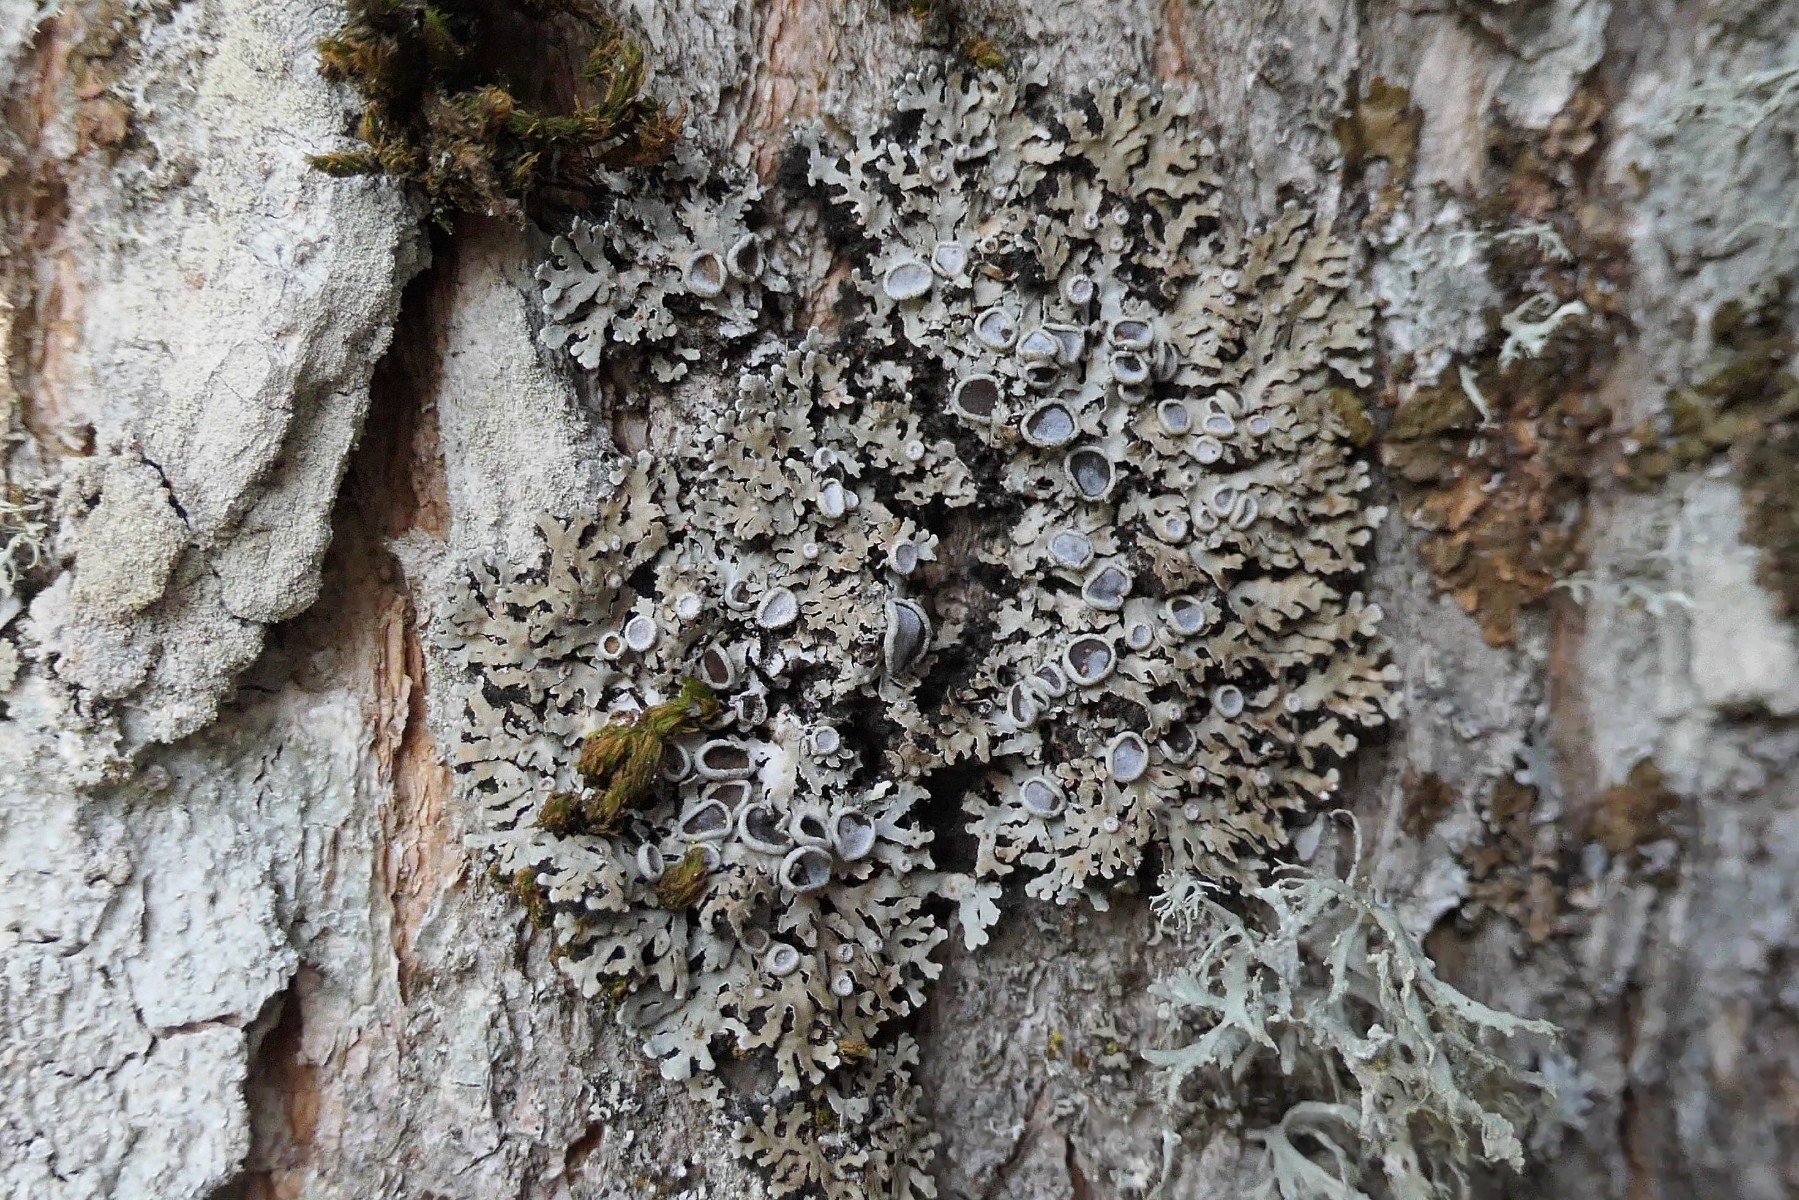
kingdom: Fungi
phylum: Ascomycota
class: Lecanoromycetes
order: Caliciales
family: Physciaceae
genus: Physconia
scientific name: Physconia distorta
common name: pudret dugrosetlav
